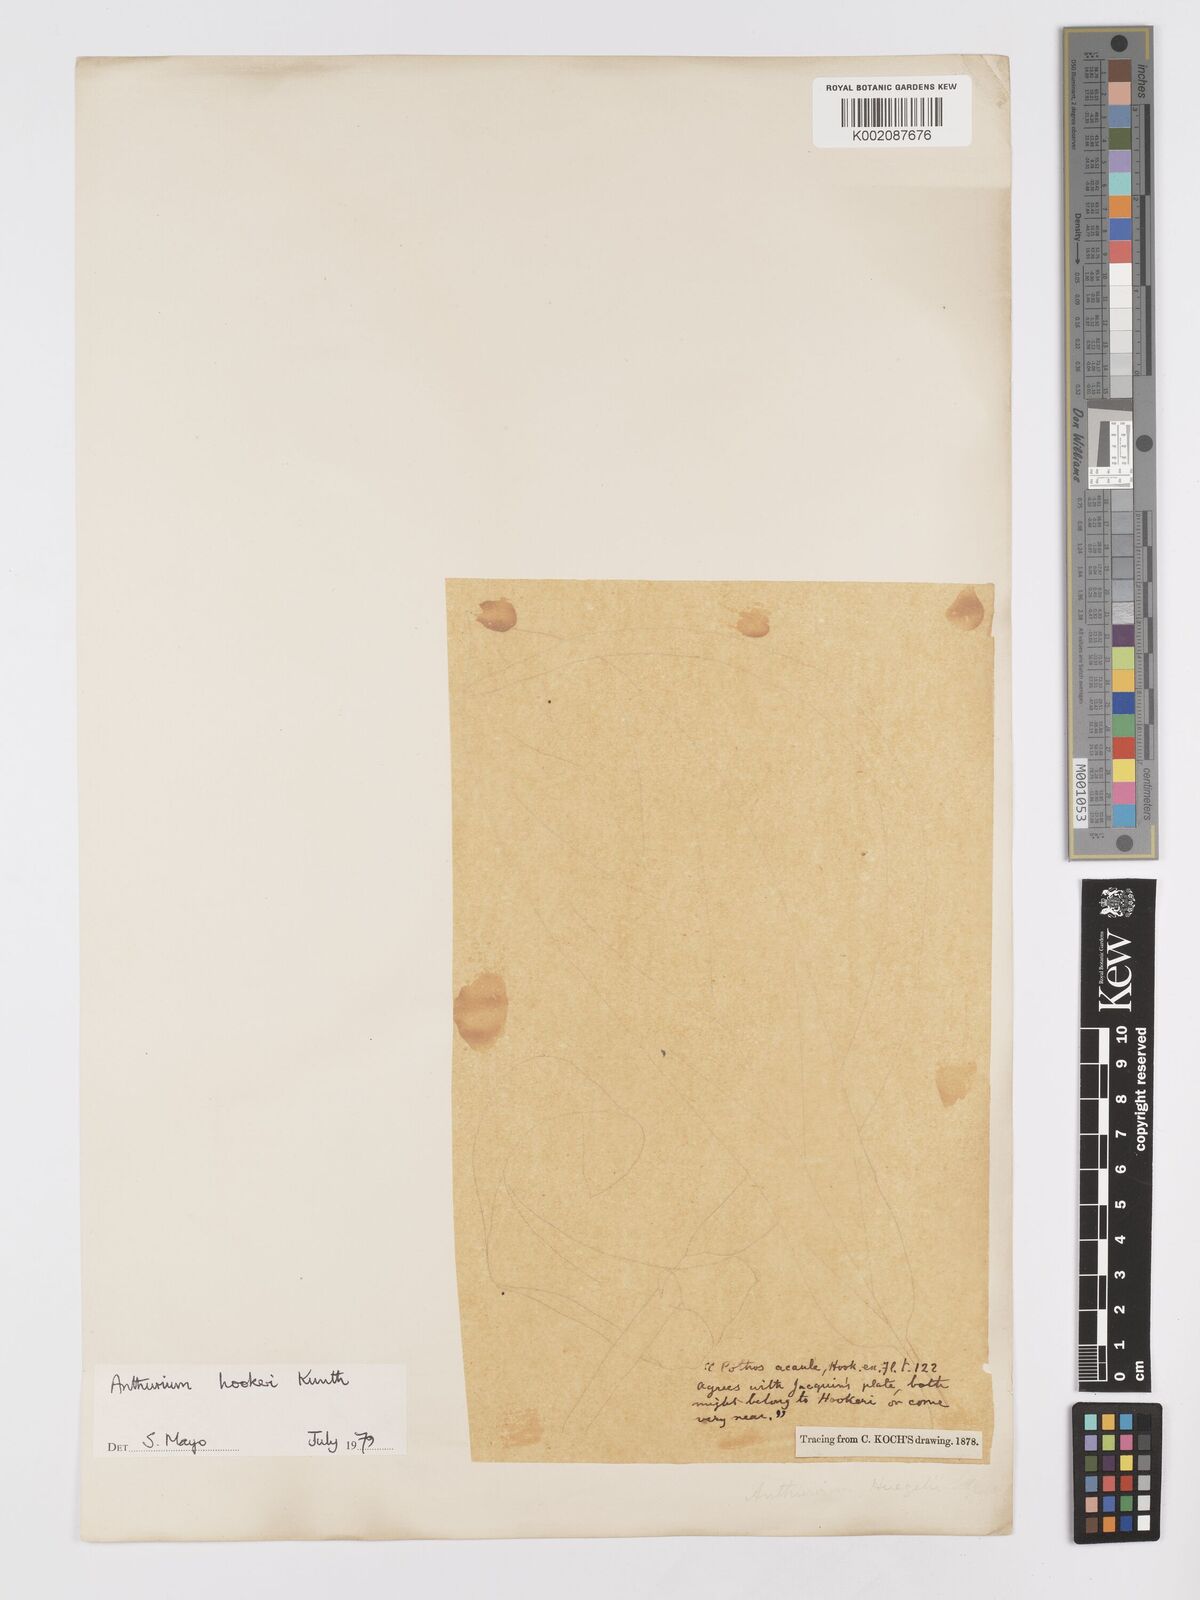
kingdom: Plantae
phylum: Tracheophyta
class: Liliopsida
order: Alismatales
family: Araceae
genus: Anthurium
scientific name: Anthurium hookeri
